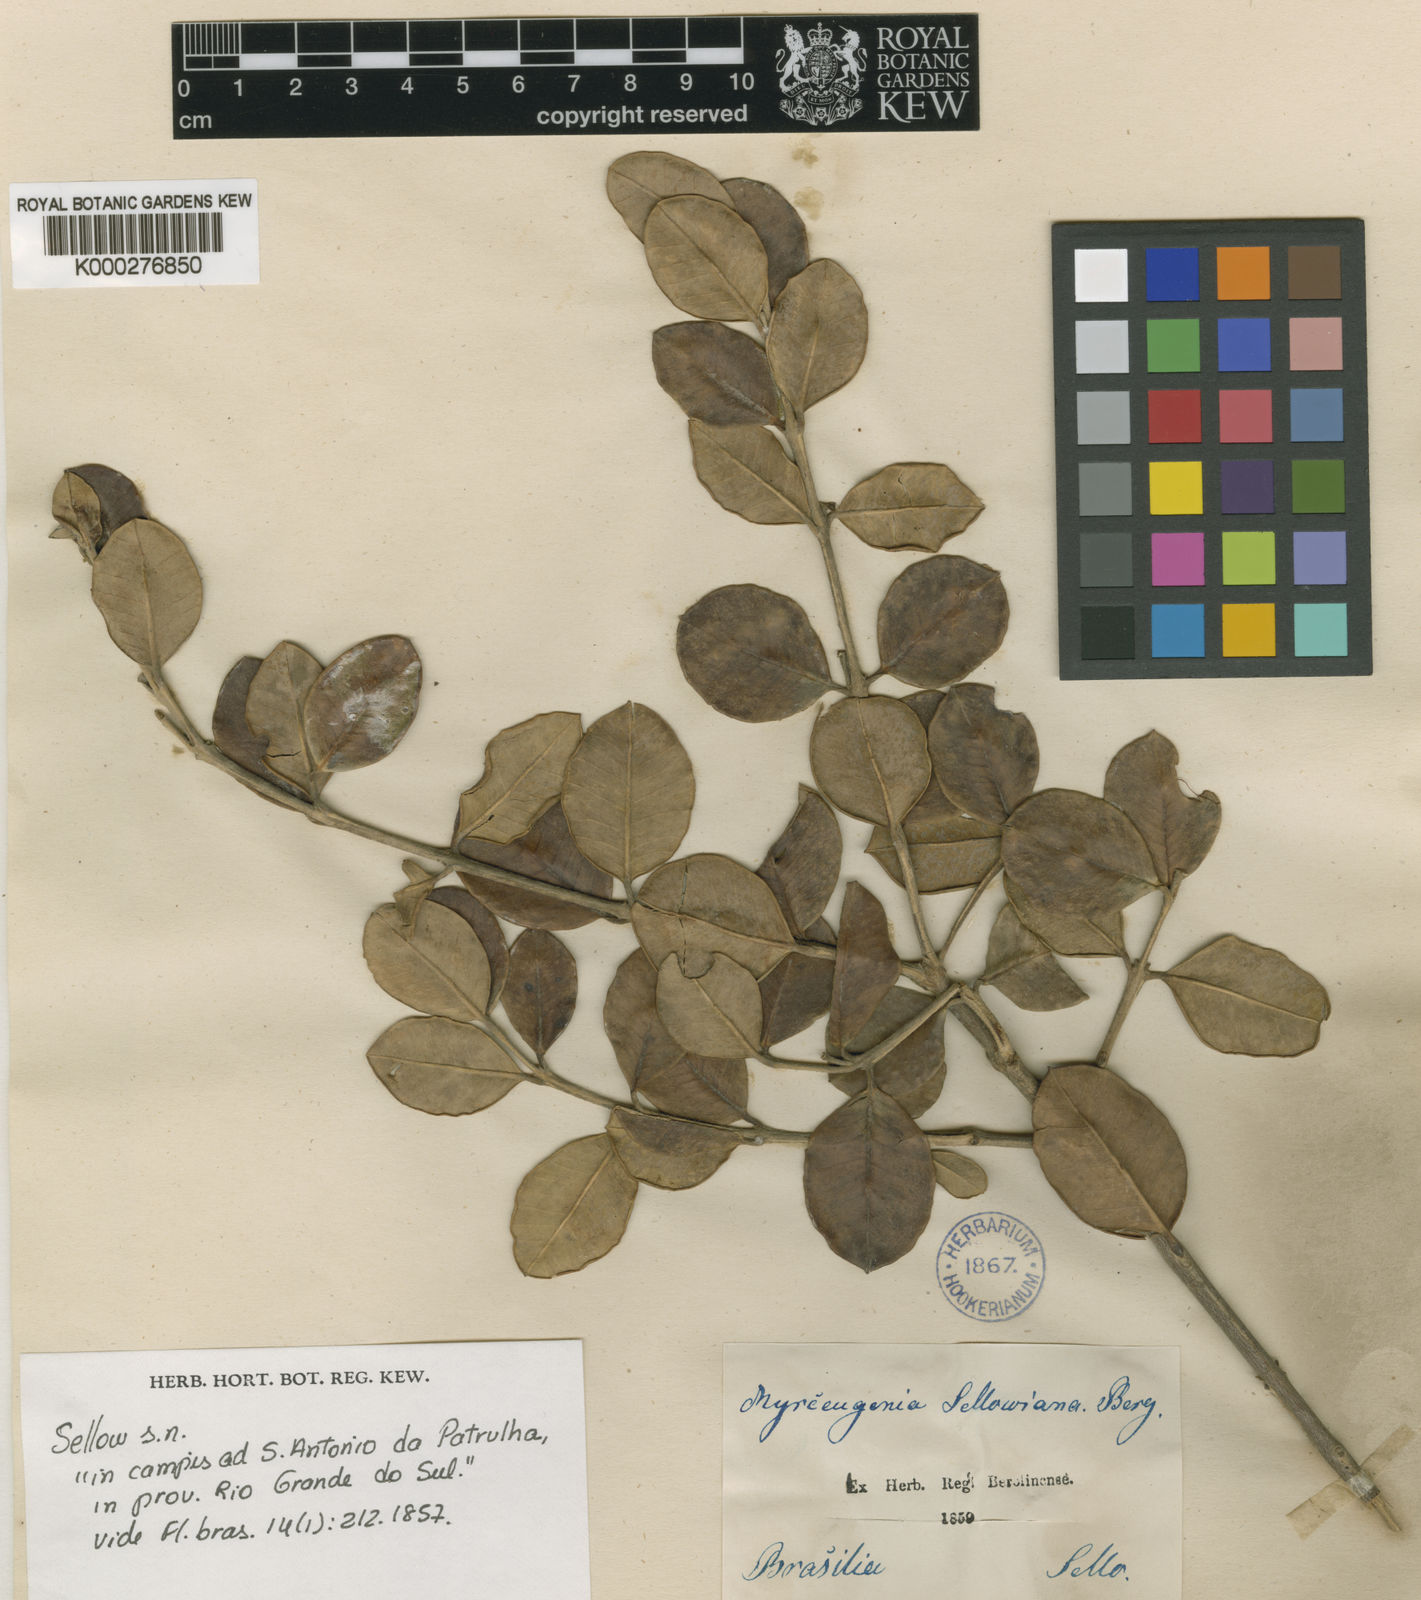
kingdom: Plantae
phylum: Tracheophyta
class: Magnoliopsida
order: Myrtales
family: Myrtaceae
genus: Myrceugenia
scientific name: Myrceugenia myrtoides
